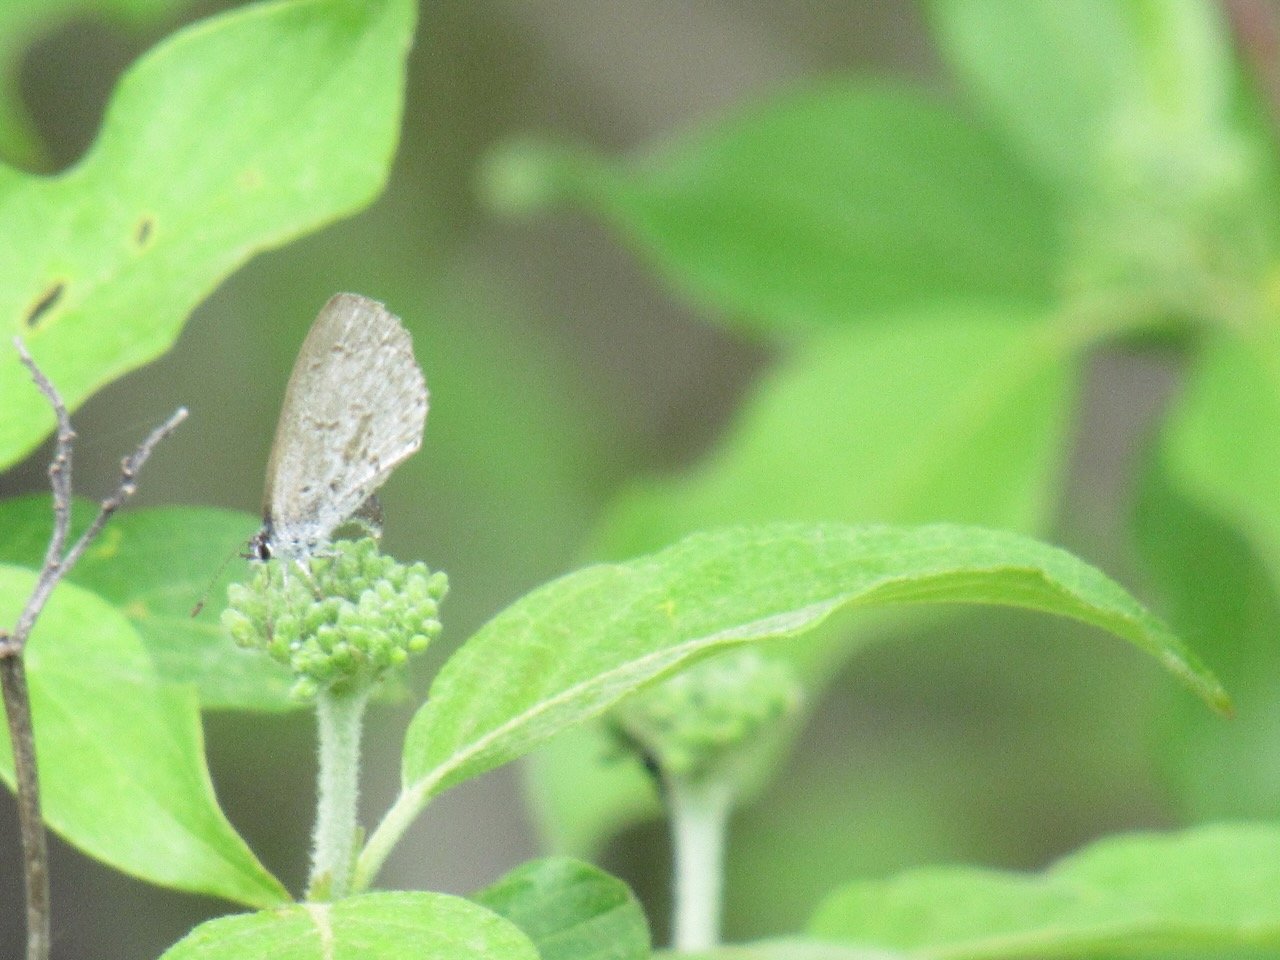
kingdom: Animalia
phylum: Arthropoda
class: Insecta
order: Lepidoptera
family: Lycaenidae
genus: Celastrina
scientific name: Celastrina lucia
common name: Northern Spring Azure
